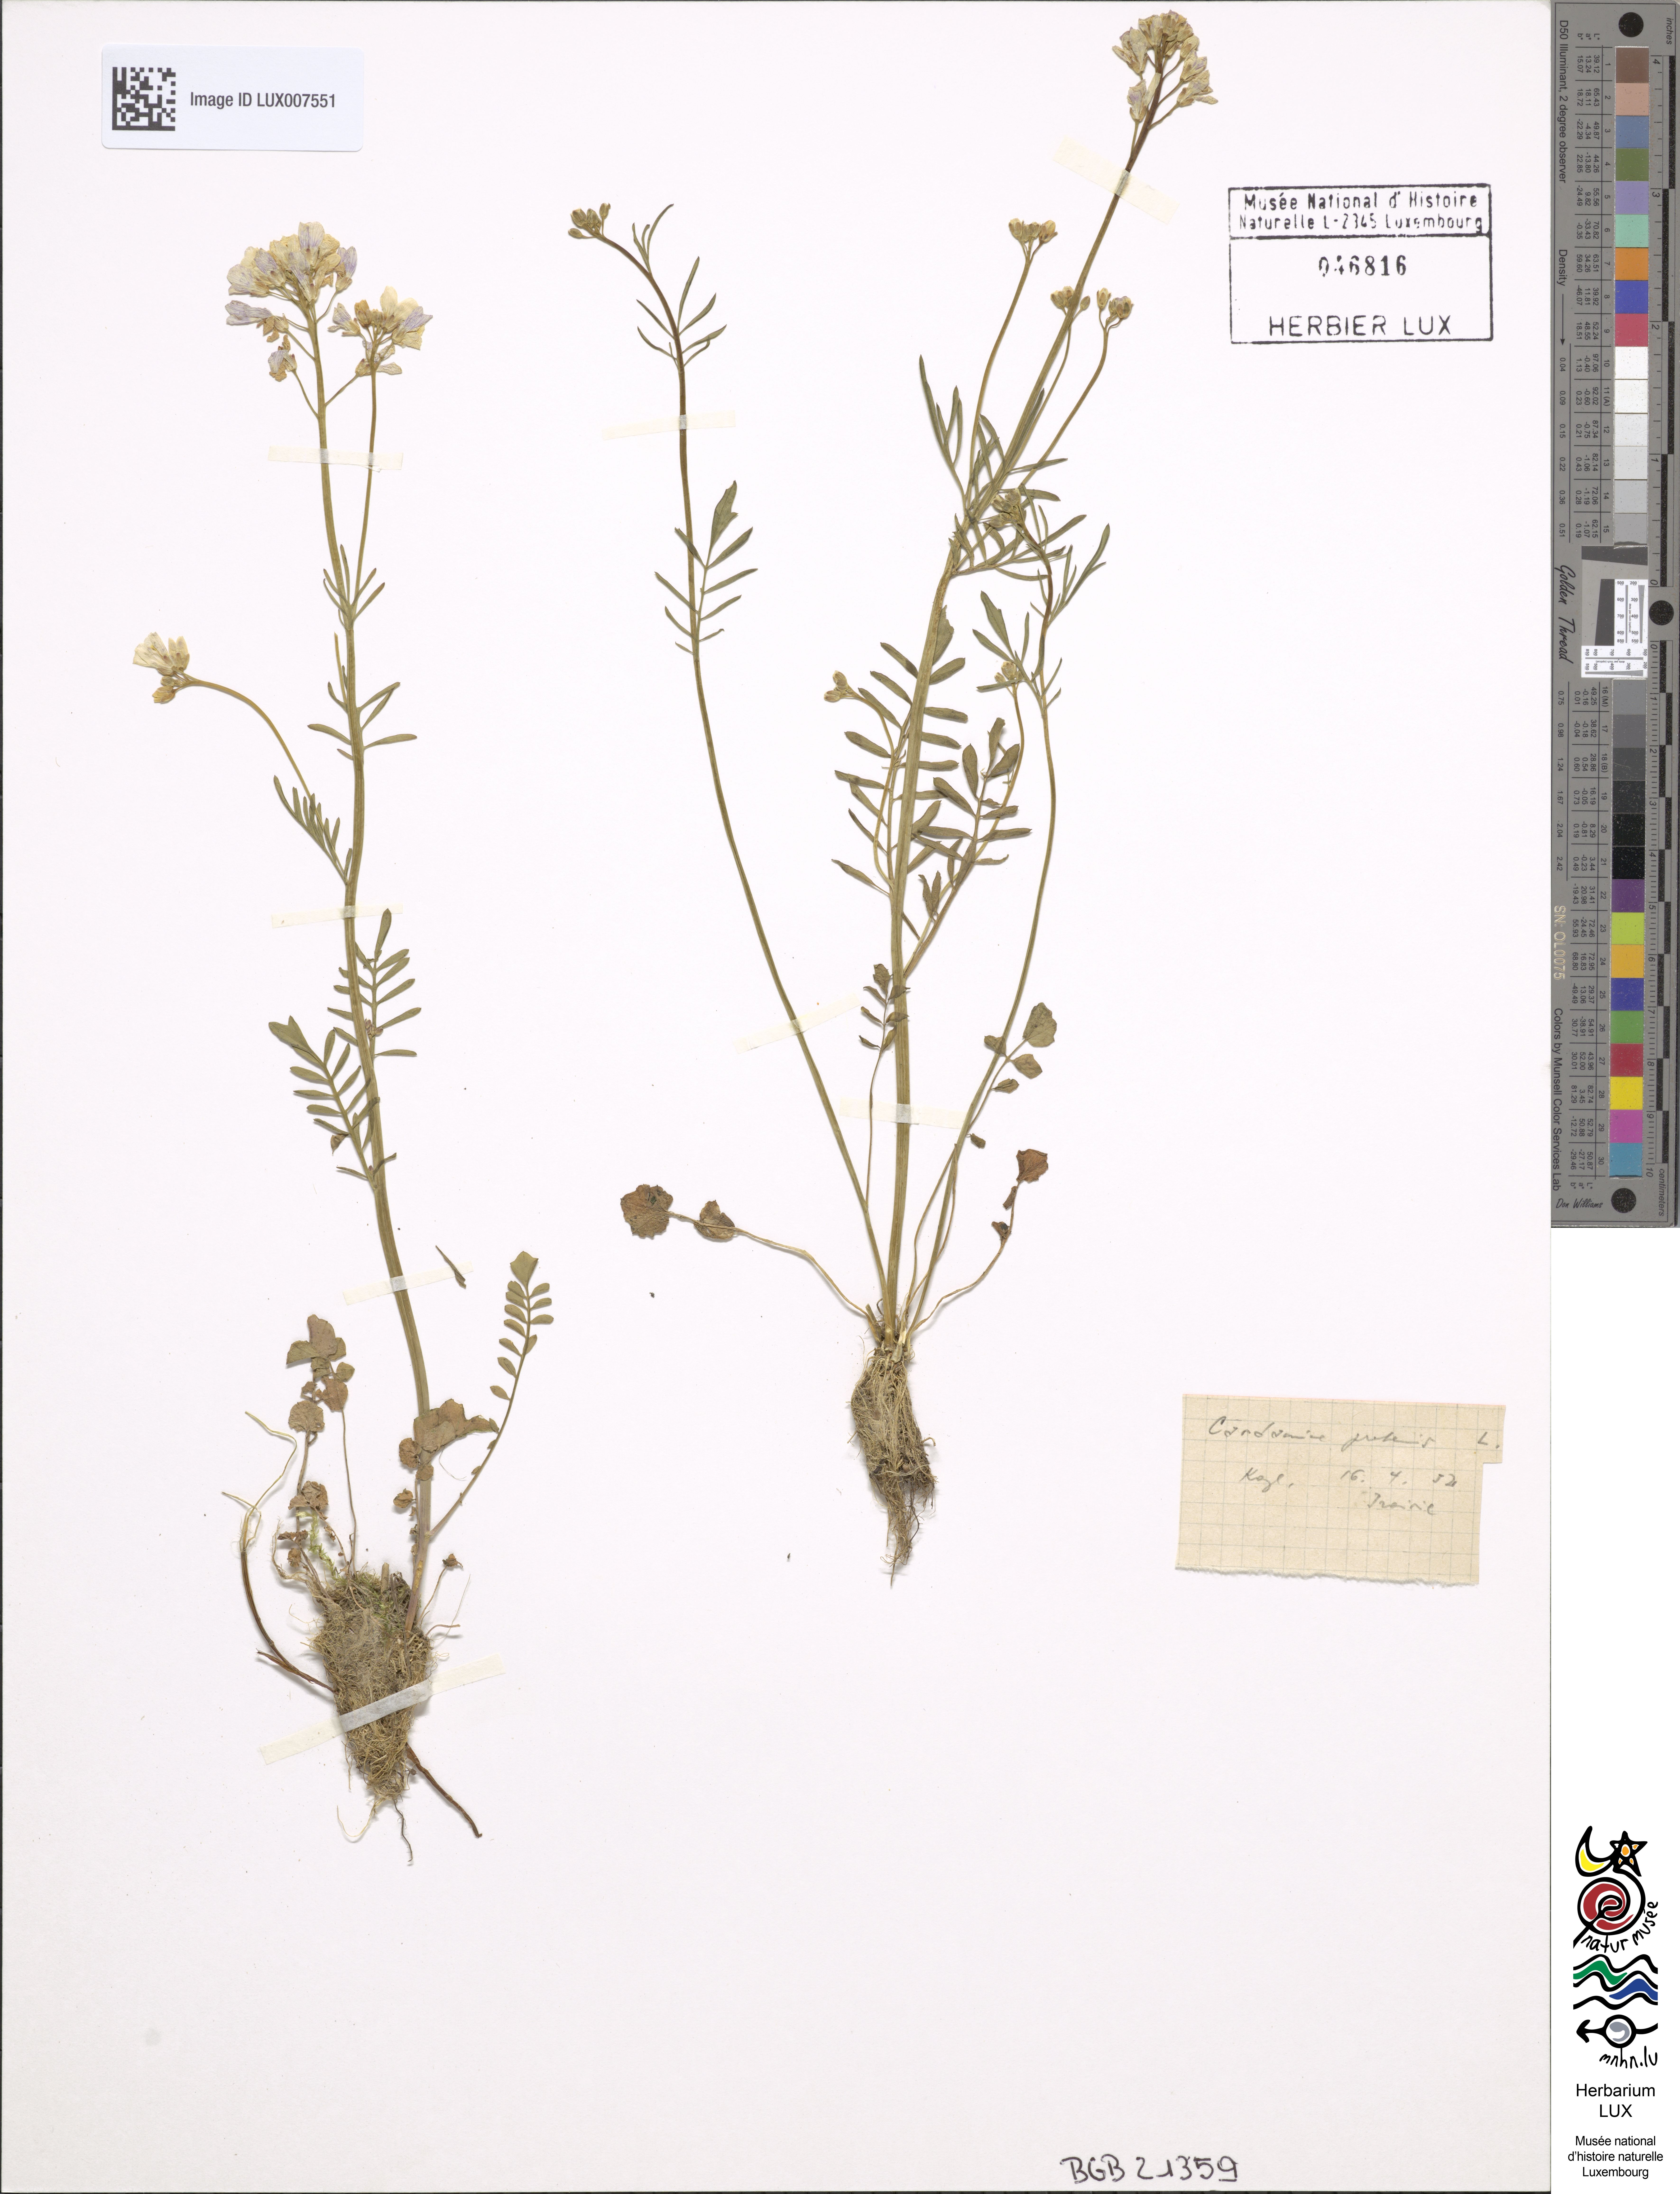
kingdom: Plantae
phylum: Tracheophyta
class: Magnoliopsida
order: Brassicales
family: Brassicaceae
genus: Cardamine
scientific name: Cardamine pratensis
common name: Cuckoo flower
